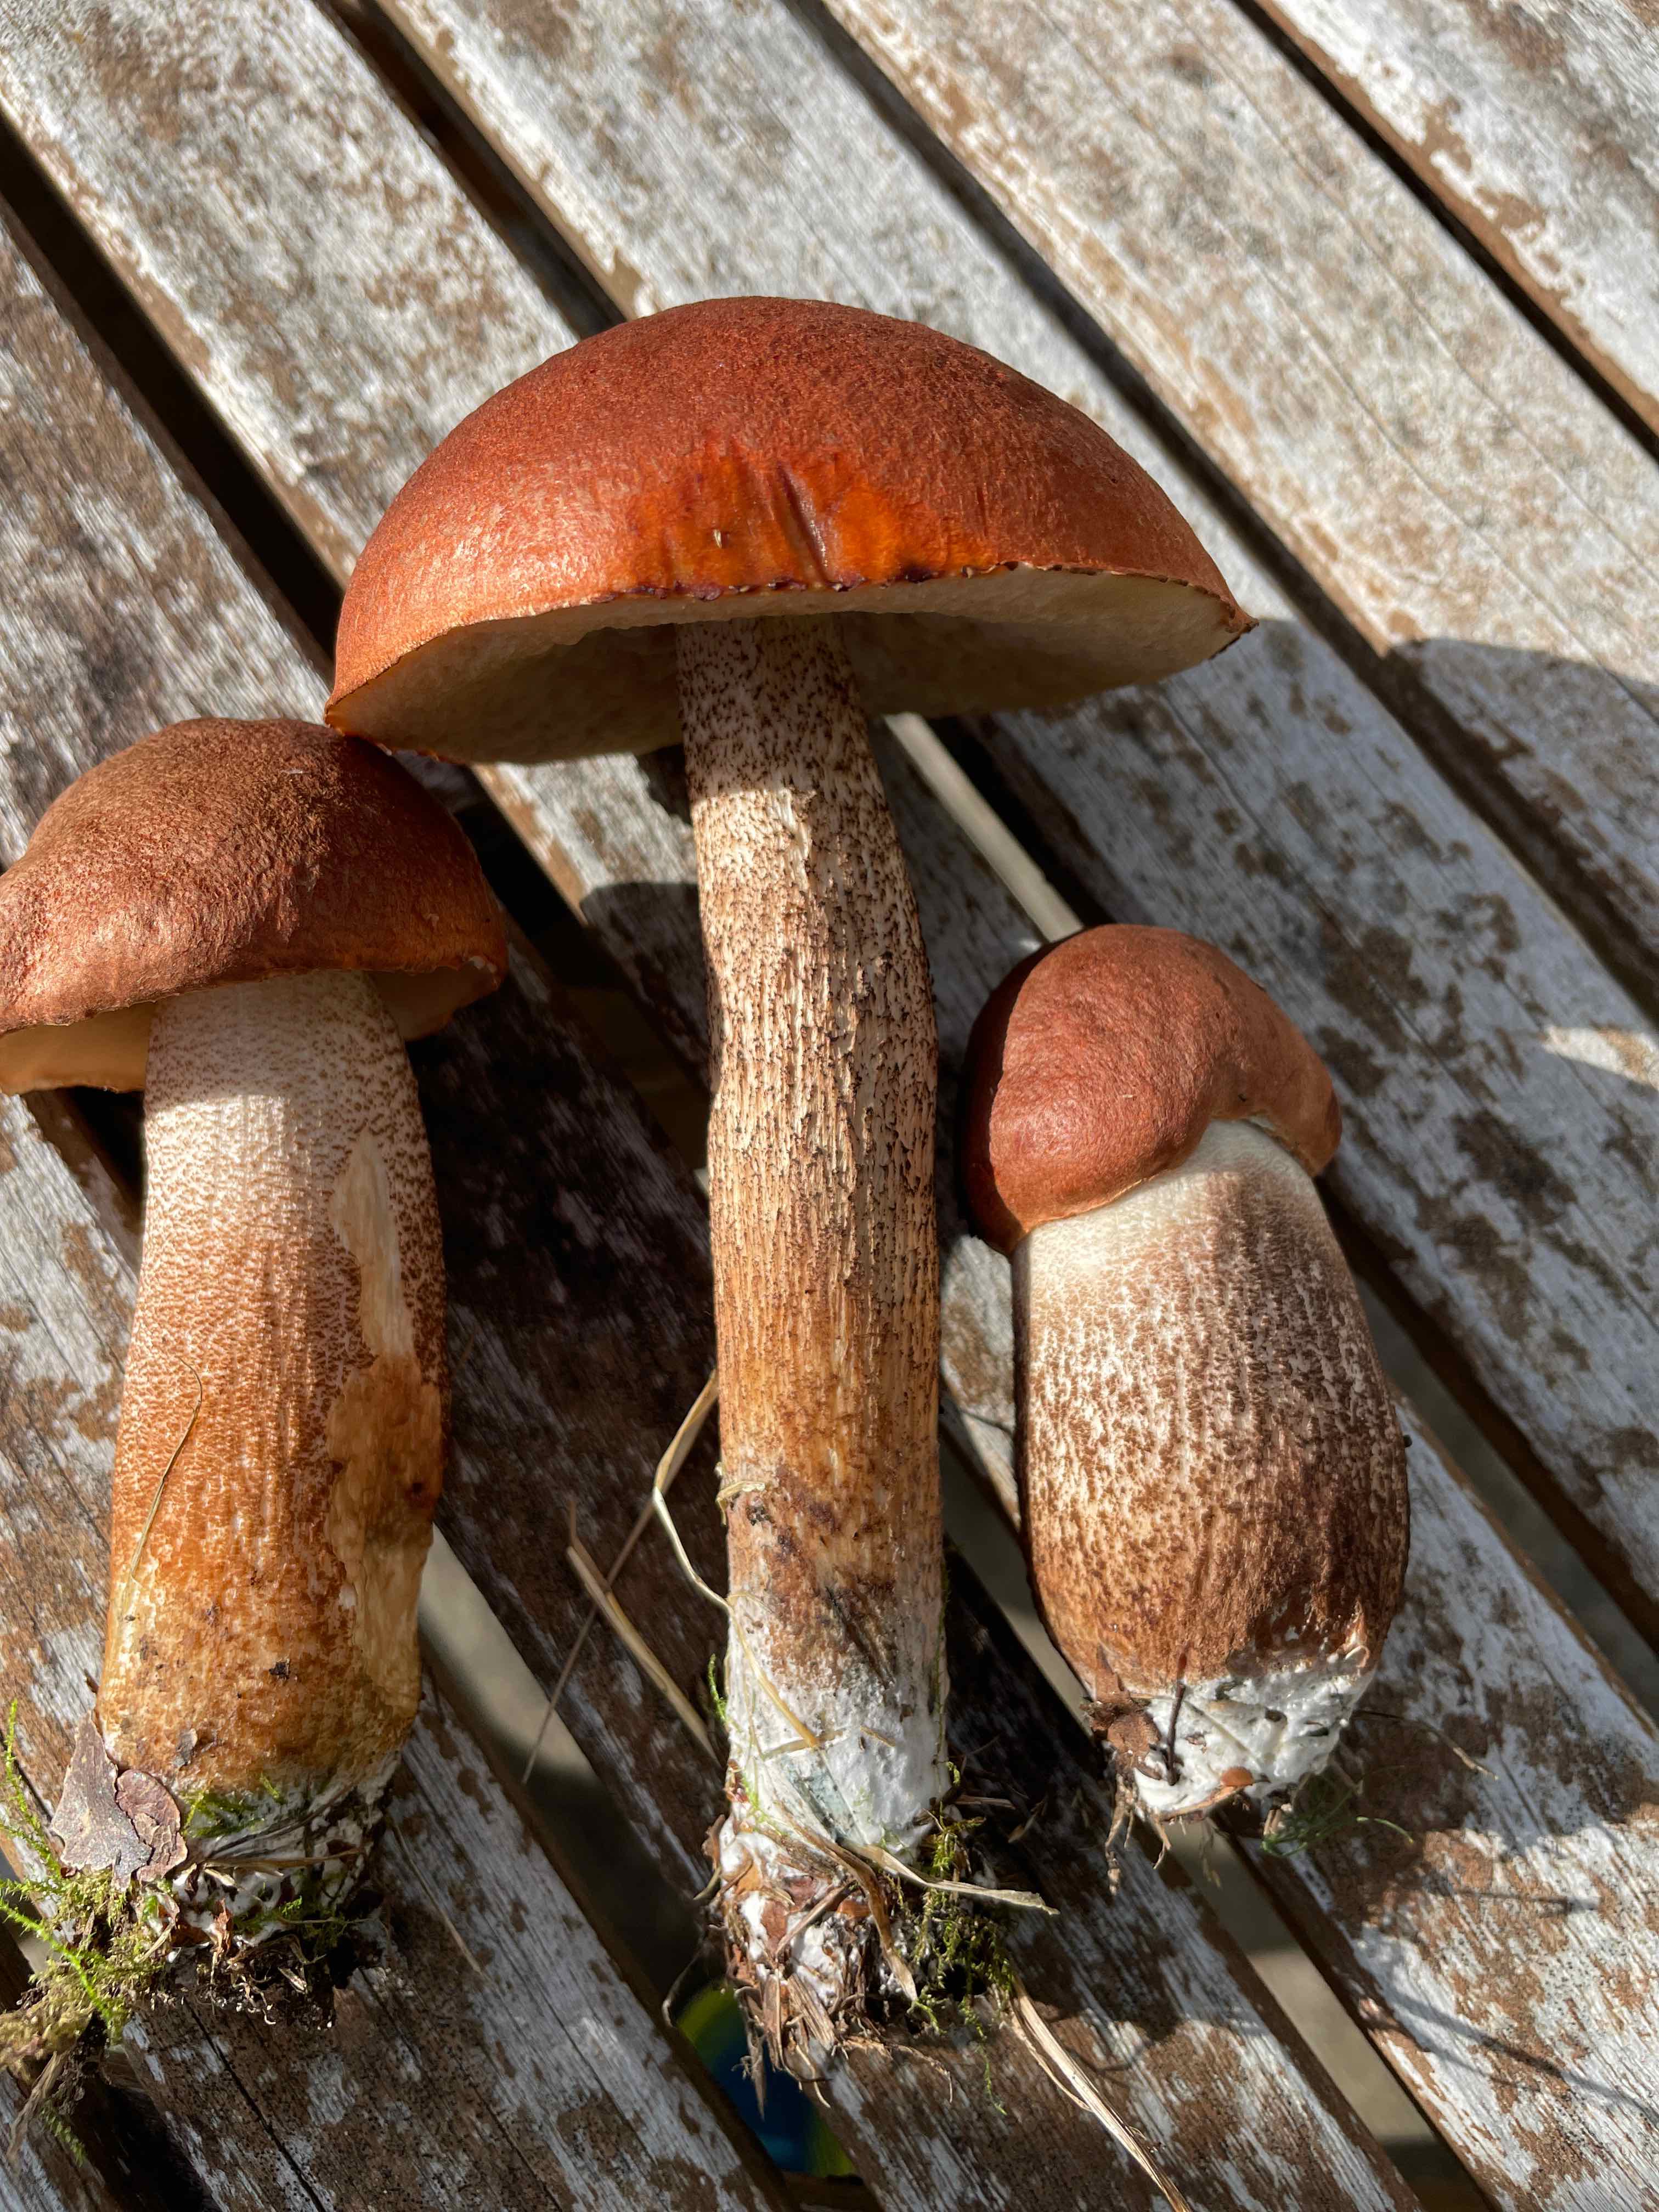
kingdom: Fungi
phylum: Basidiomycota
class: Agaricomycetes
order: Boletales
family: Boletaceae
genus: Leccinum
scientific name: Leccinum aurantiacum
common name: rustrød skælrørhat
